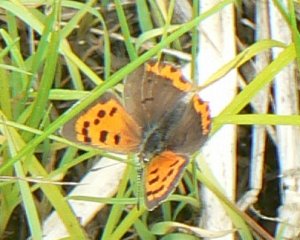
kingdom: Animalia
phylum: Arthropoda
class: Insecta
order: Lepidoptera
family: Lycaenidae
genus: Lycaena
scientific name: Lycaena phlaeas
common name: American Copper
